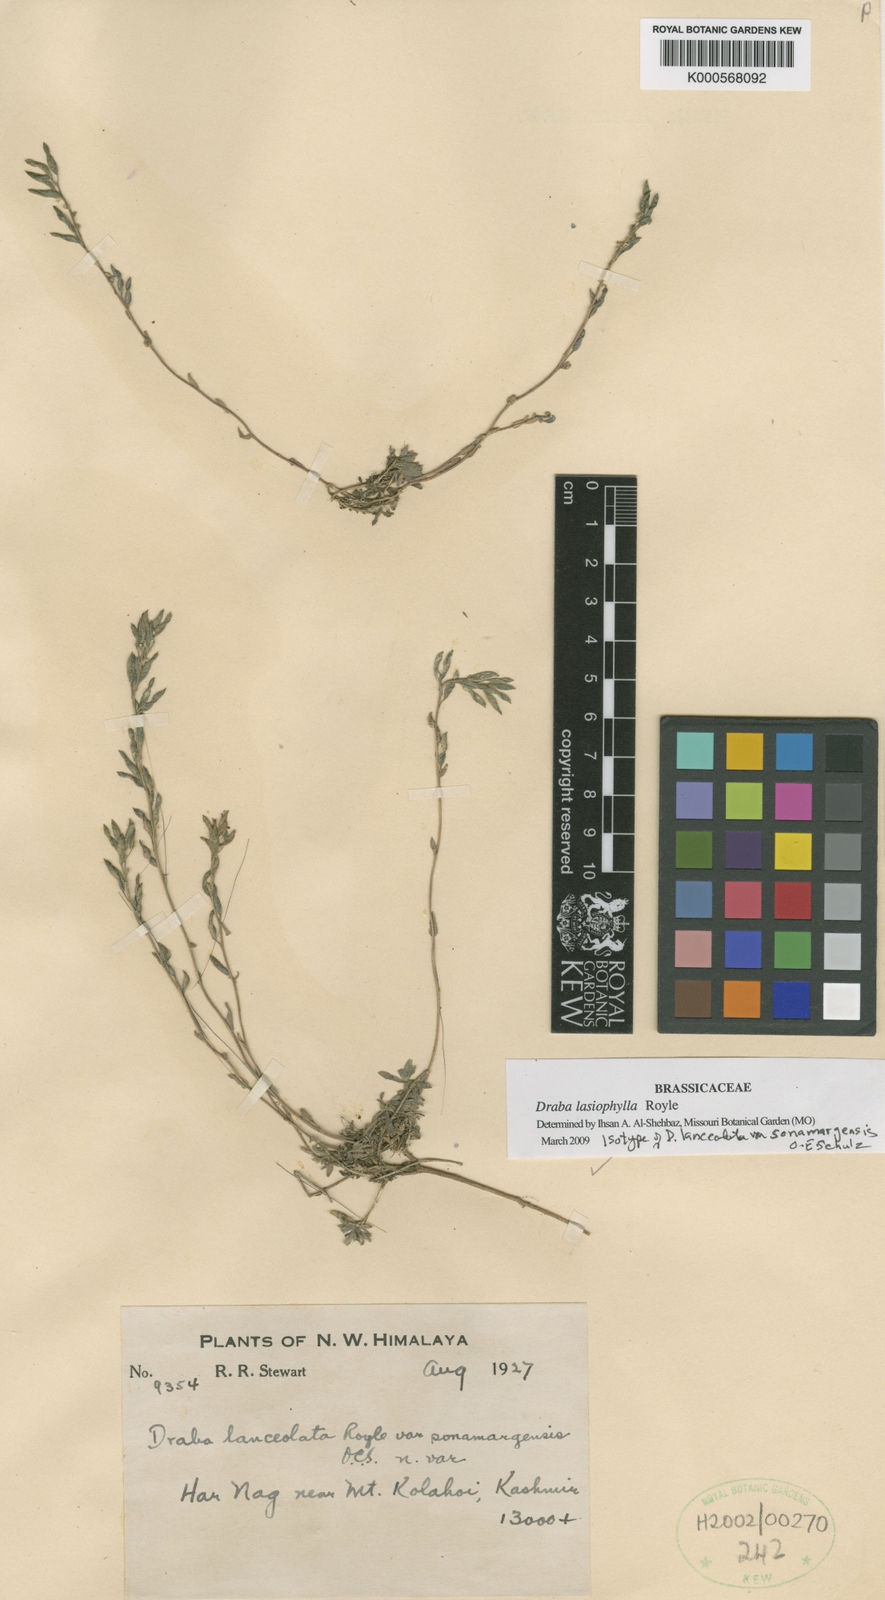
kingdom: Plantae
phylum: Tracheophyta
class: Magnoliopsida
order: Brassicales
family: Brassicaceae
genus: Draba
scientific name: Draba lasiophylla
